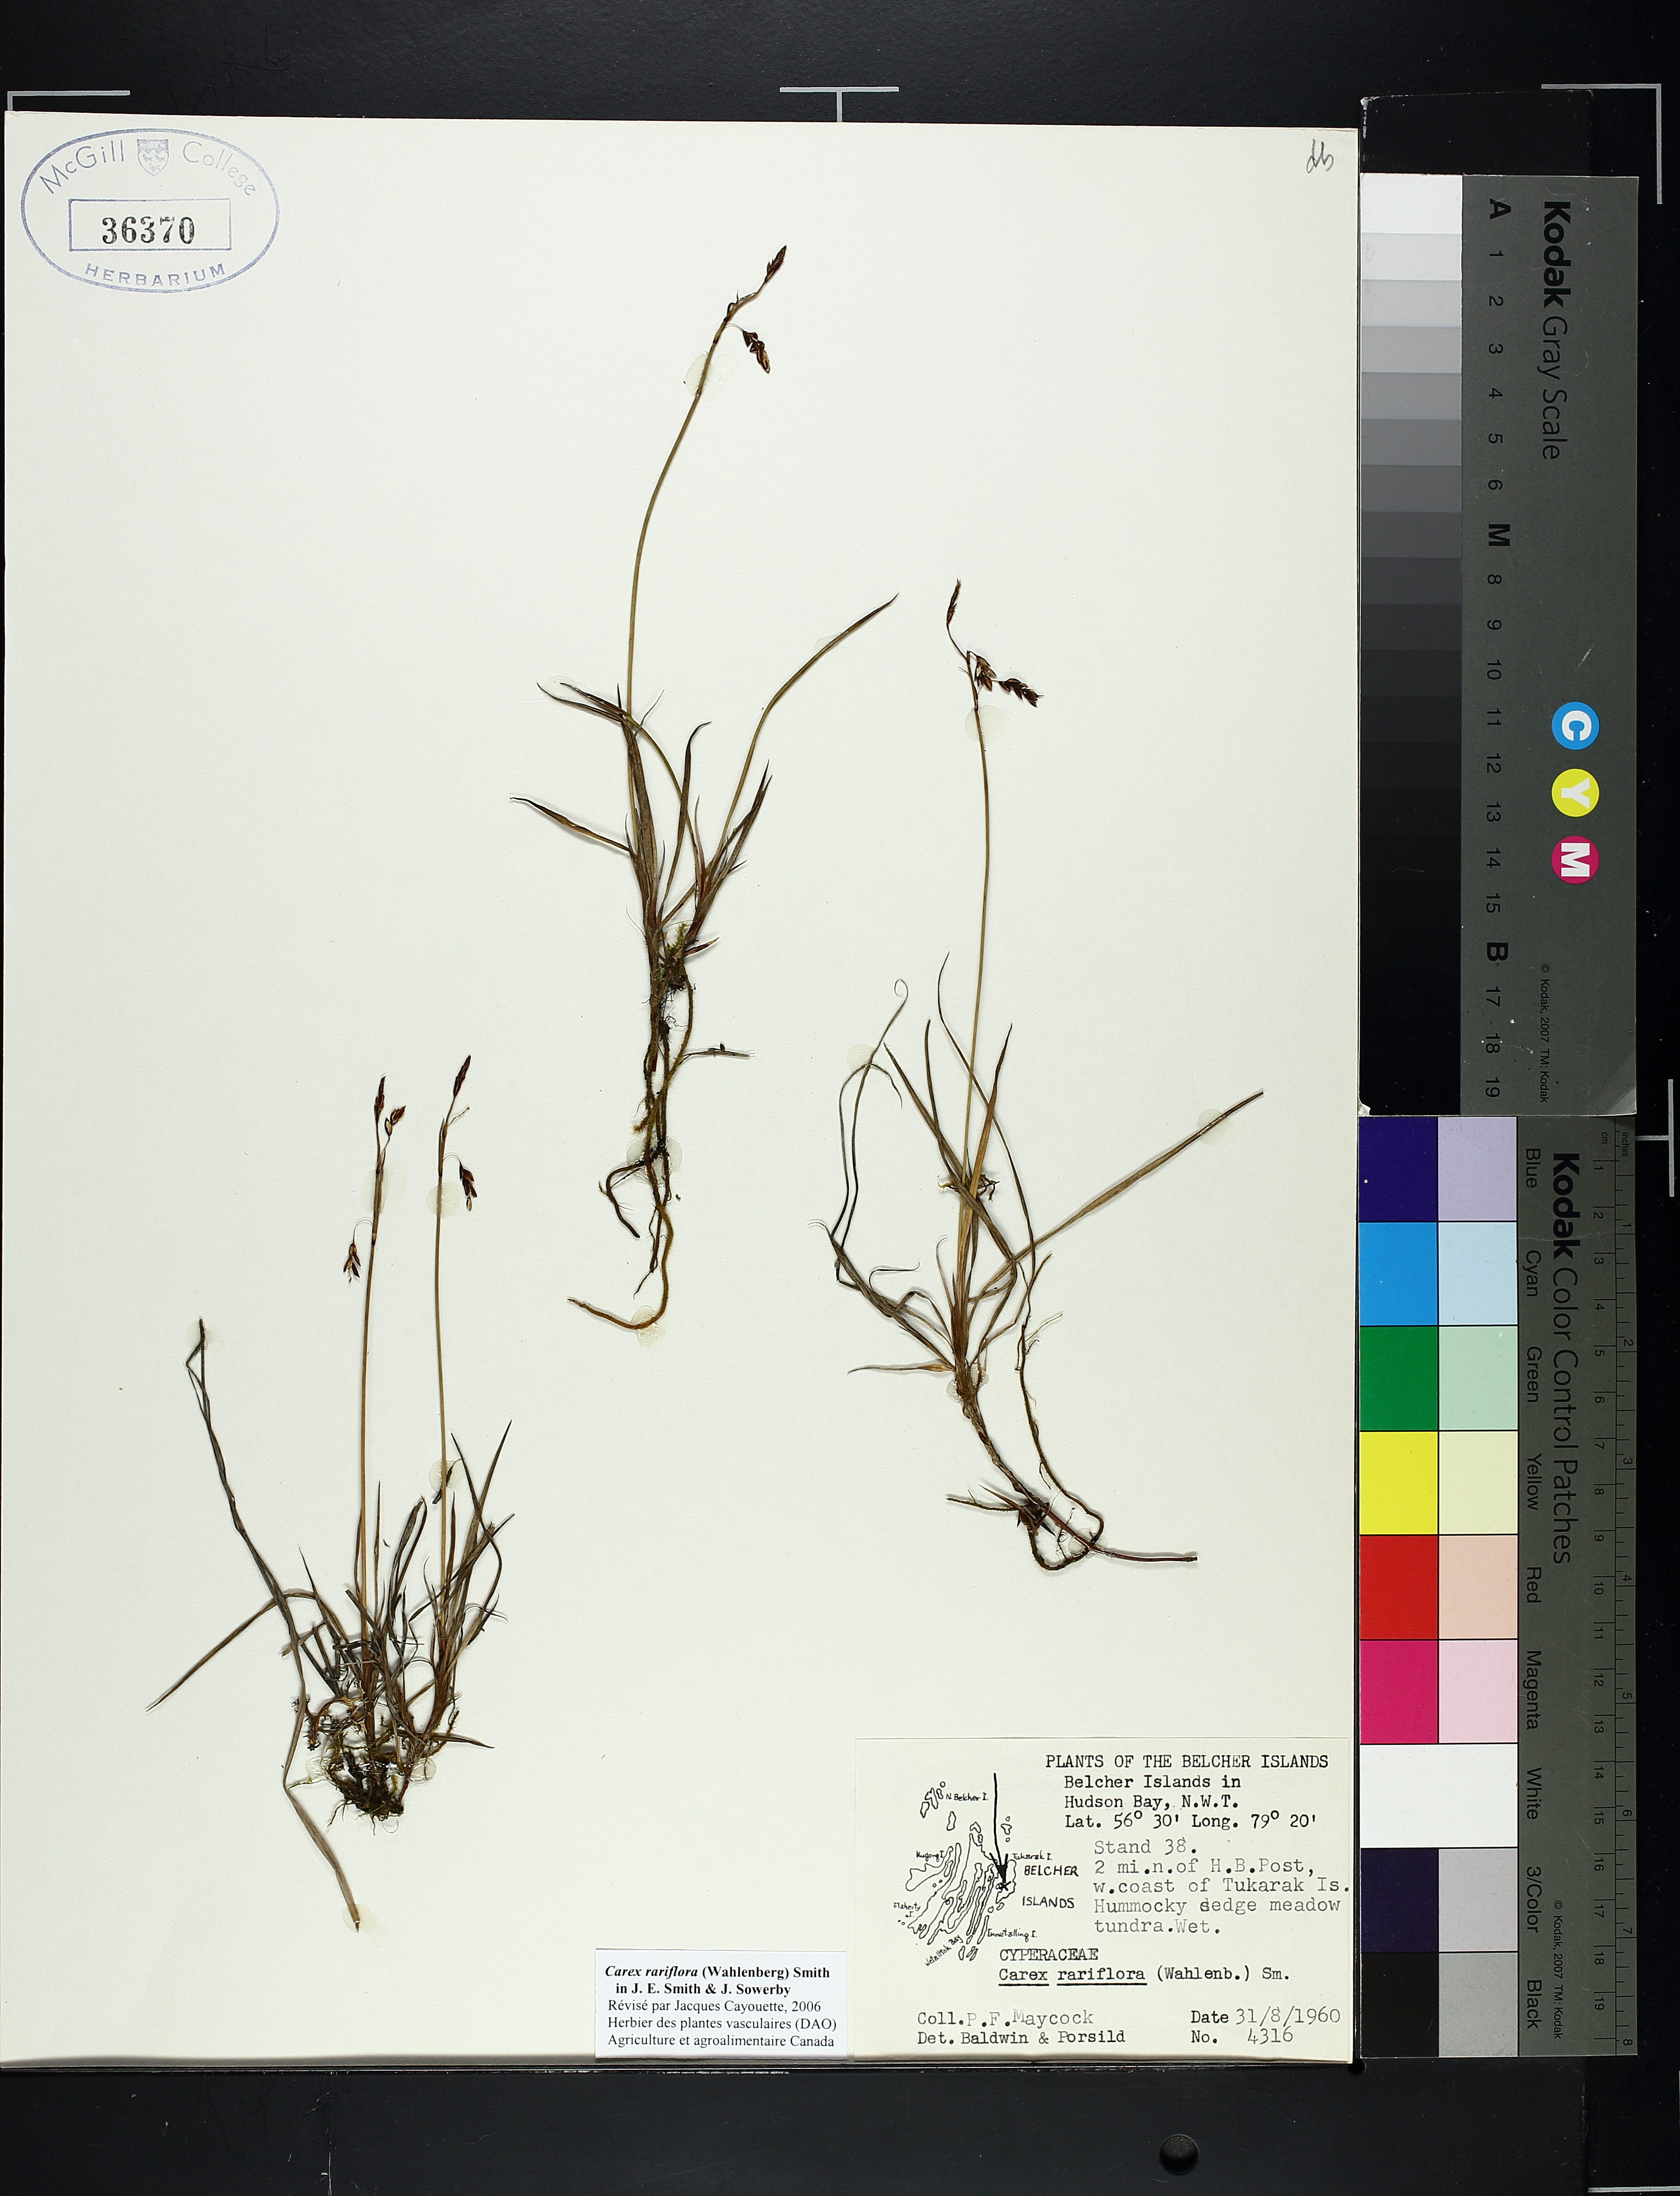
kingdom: Plantae
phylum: Tracheophyta
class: Liliopsida
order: Poales
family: Cyperaceae
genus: Carex
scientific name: Carex rariflora
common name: Loose-flowered alpine sedge
